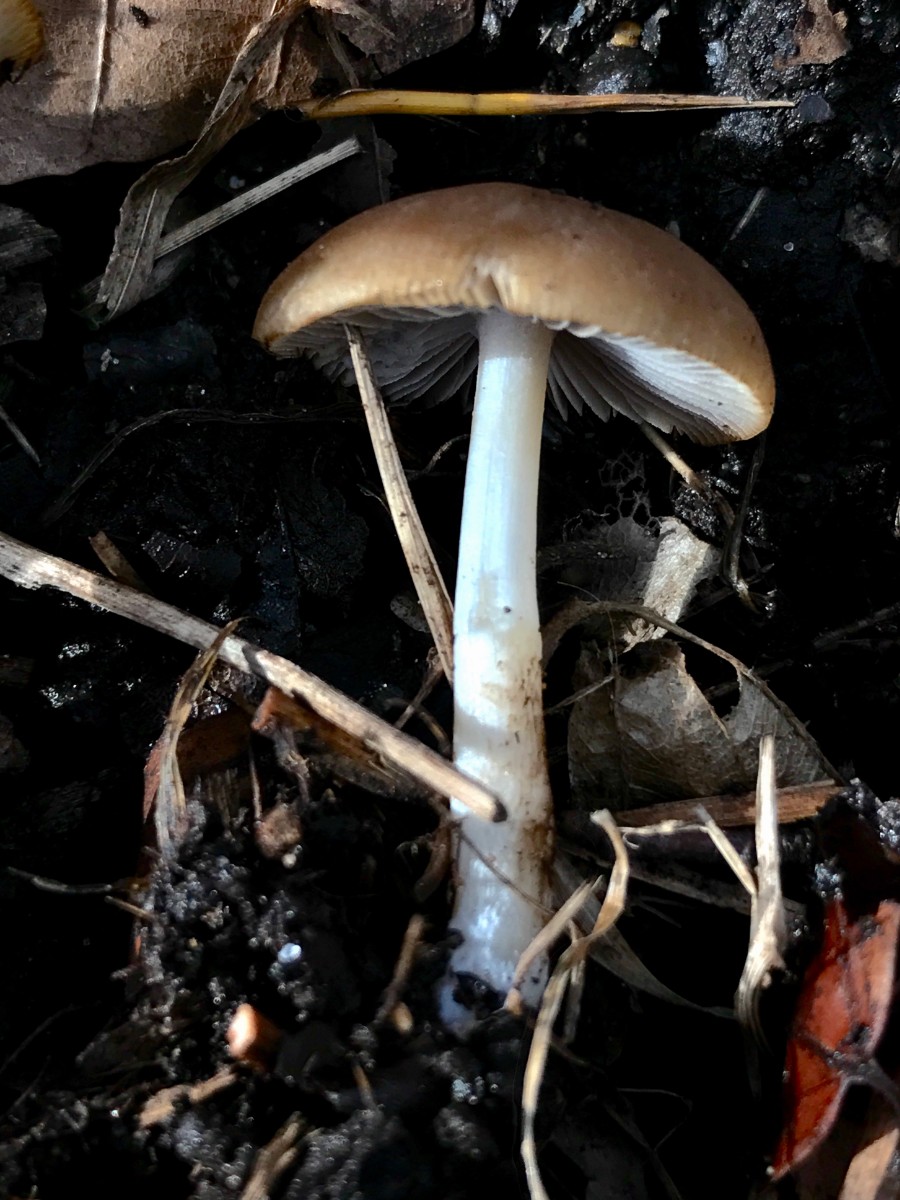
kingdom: Fungi
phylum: Basidiomycota
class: Agaricomycetes
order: Agaricales
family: Psathyrellaceae
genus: Psathyrella
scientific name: Psathyrella spadiceogrisea
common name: gråbrun mørkhat
